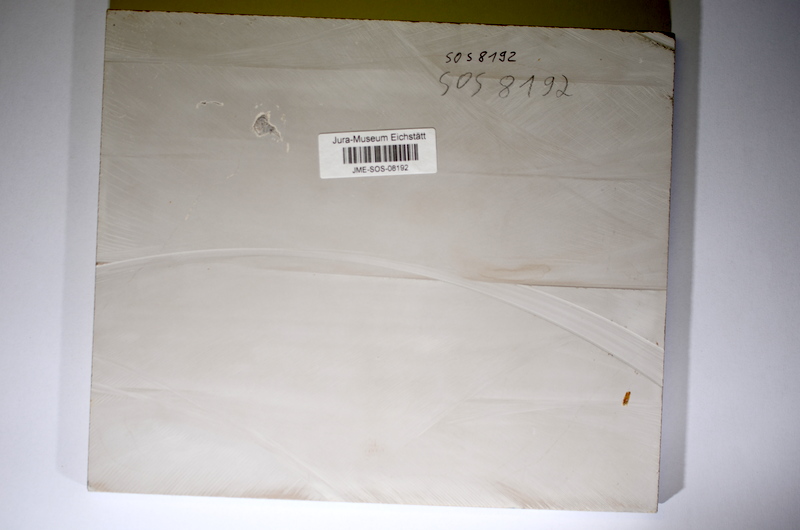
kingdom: Animalia
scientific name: Animalia
